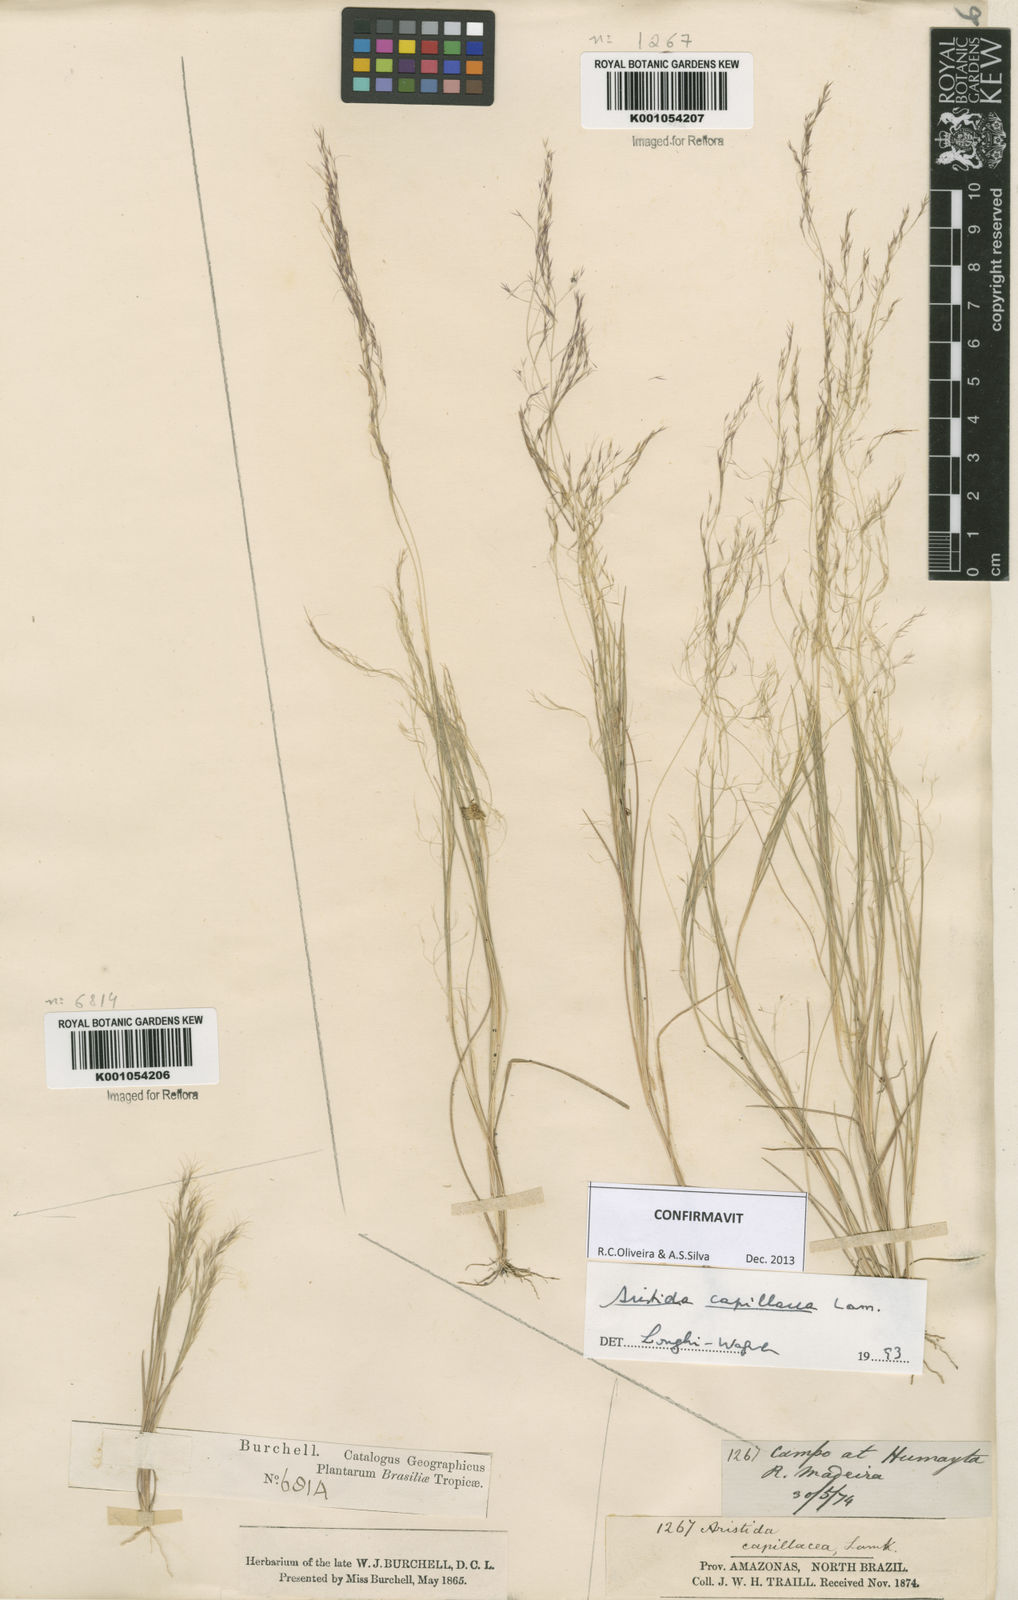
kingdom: Plantae
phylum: Tracheophyta
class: Liliopsida
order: Poales
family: Poaceae
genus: Aristida
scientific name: Aristida capillacea
